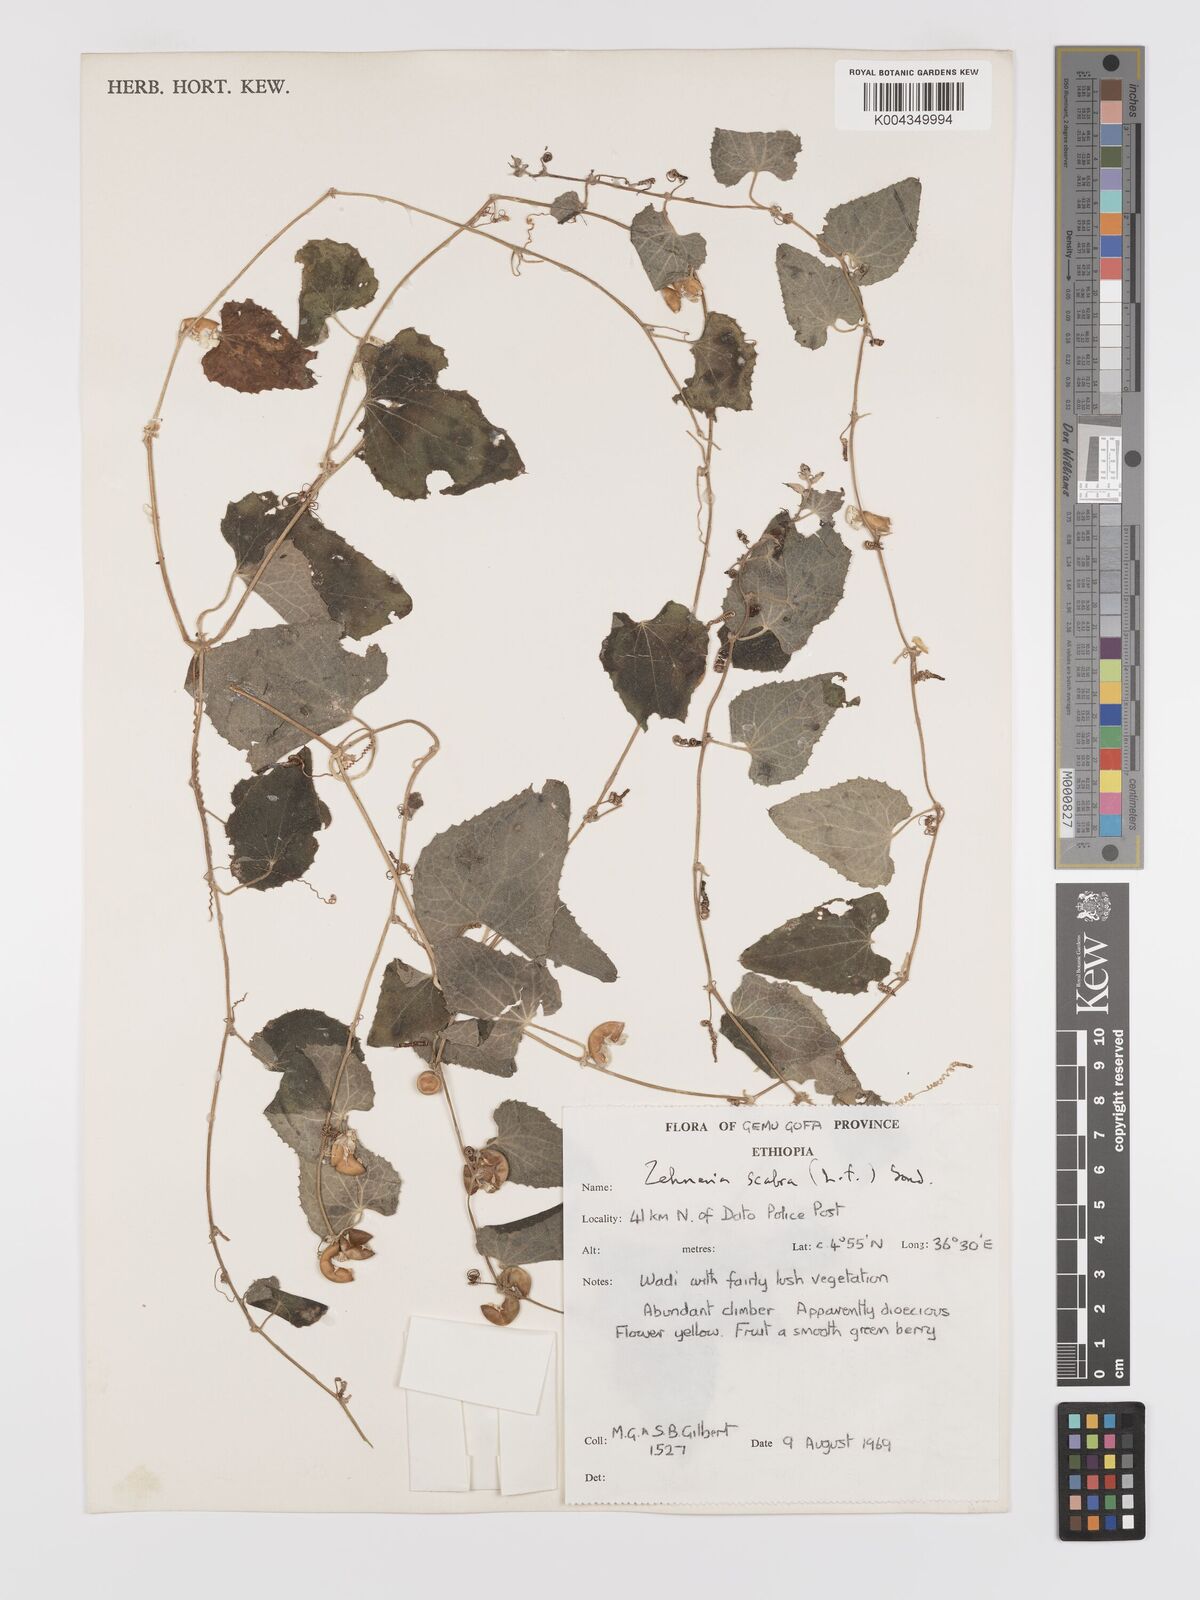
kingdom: Plantae
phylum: Tracheophyta
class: Magnoliopsida
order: Cucurbitales
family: Cucurbitaceae
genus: Zehneria
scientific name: Zehneria scabra
